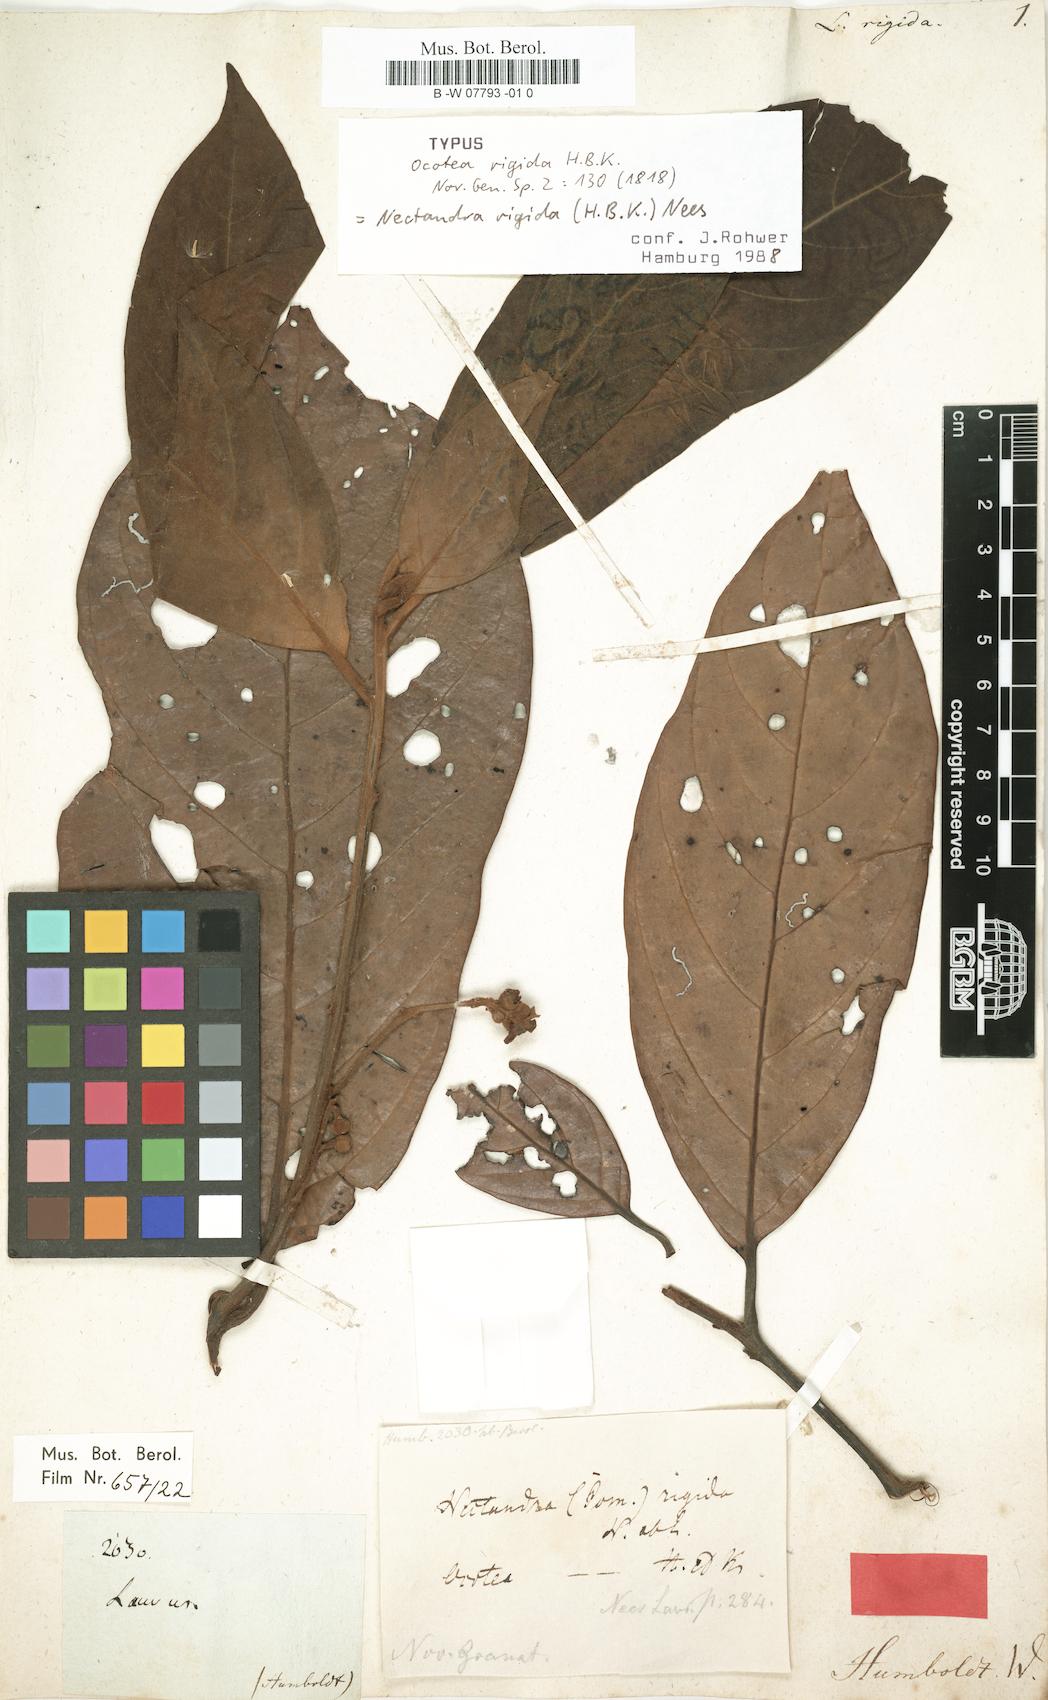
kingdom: Plantae
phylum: Tracheophyta
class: Magnoliopsida
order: Laurales
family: Lauraceae
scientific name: Lauraceae
